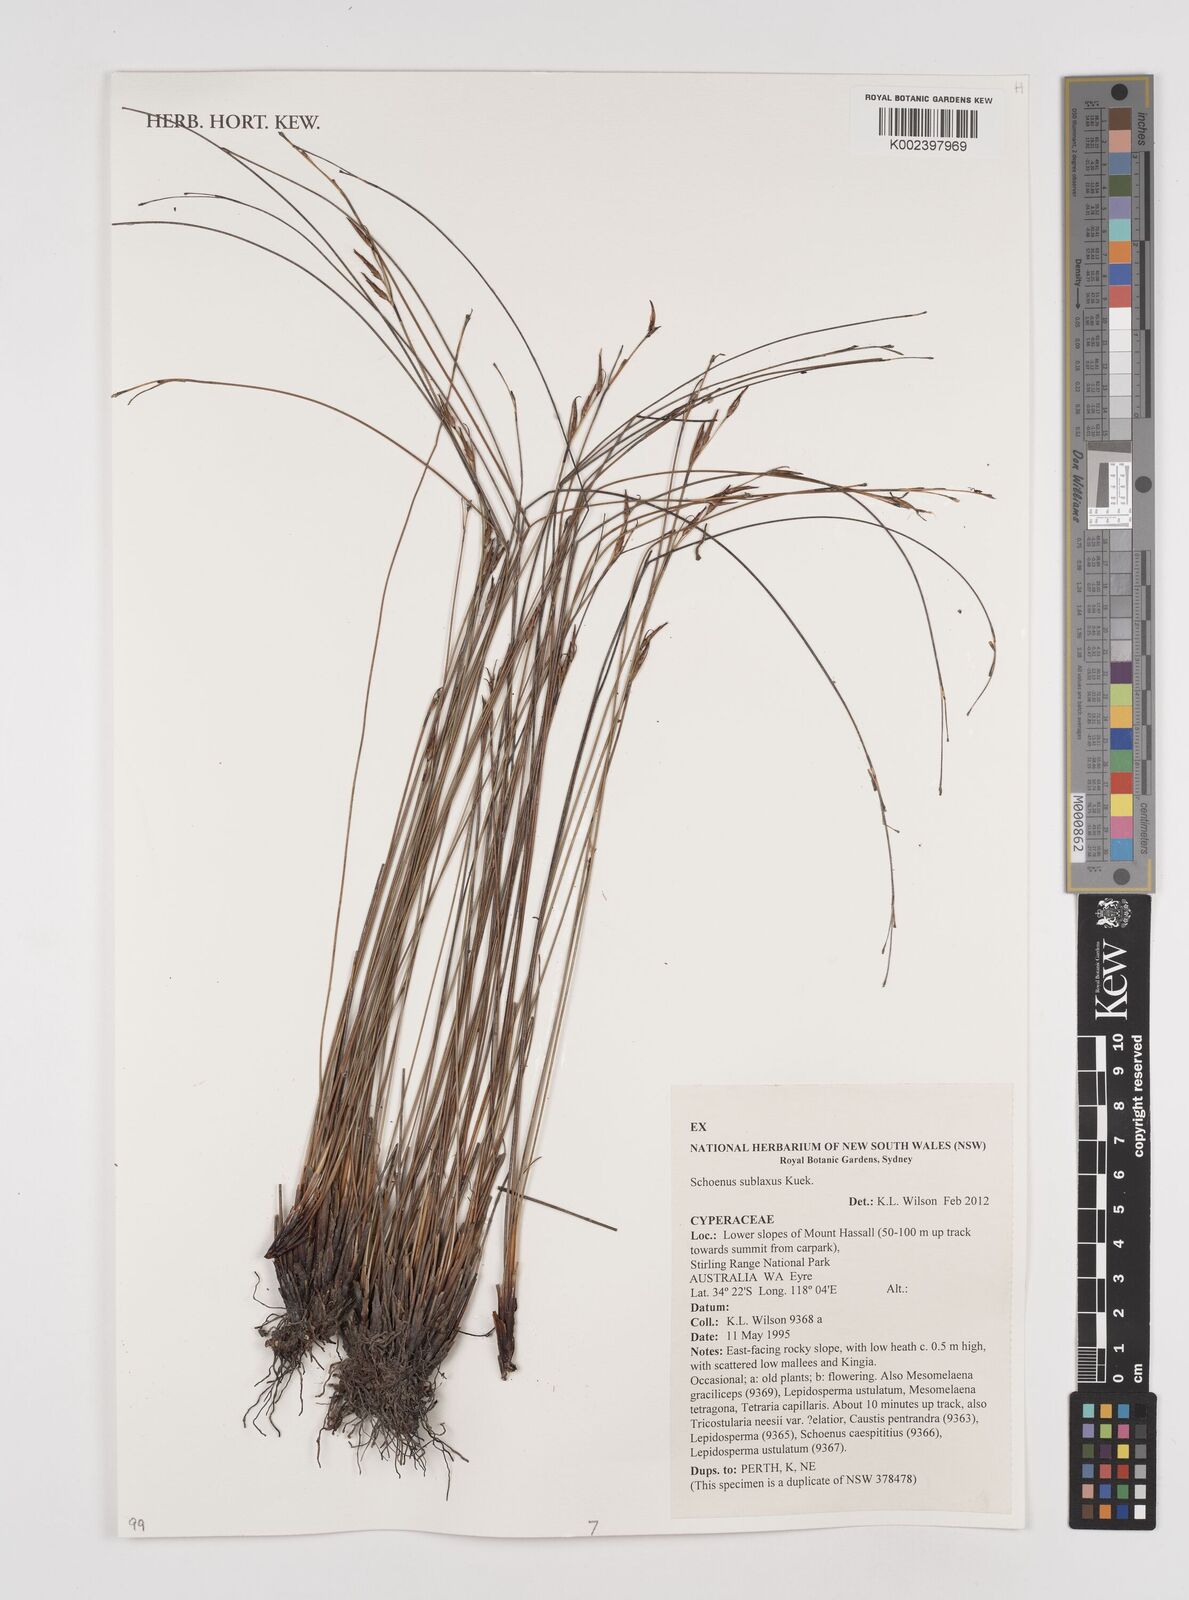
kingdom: Plantae
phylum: Tracheophyta
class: Liliopsida
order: Poales
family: Cyperaceae
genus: Schoenus
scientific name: Schoenus sublaxus
